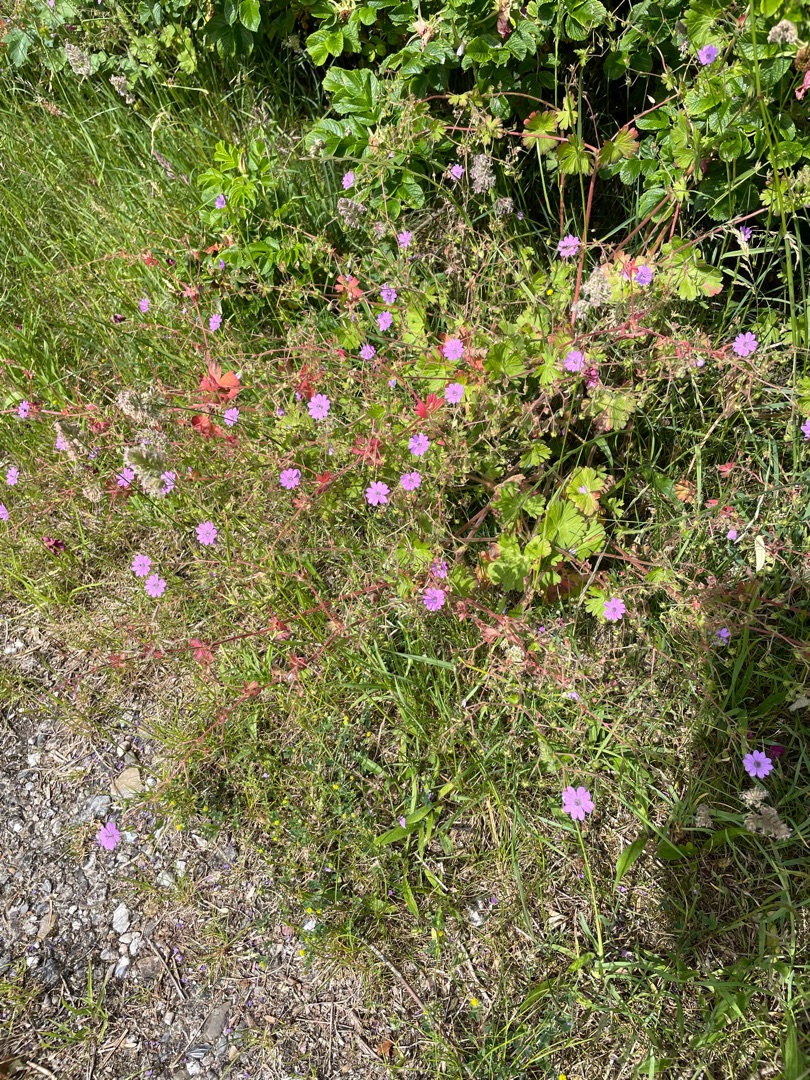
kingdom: Plantae
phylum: Tracheophyta
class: Magnoliopsida
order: Geraniales
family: Geraniaceae
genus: Geranium
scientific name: Geranium pyrenaicum
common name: Pyrenæisk storkenæb
